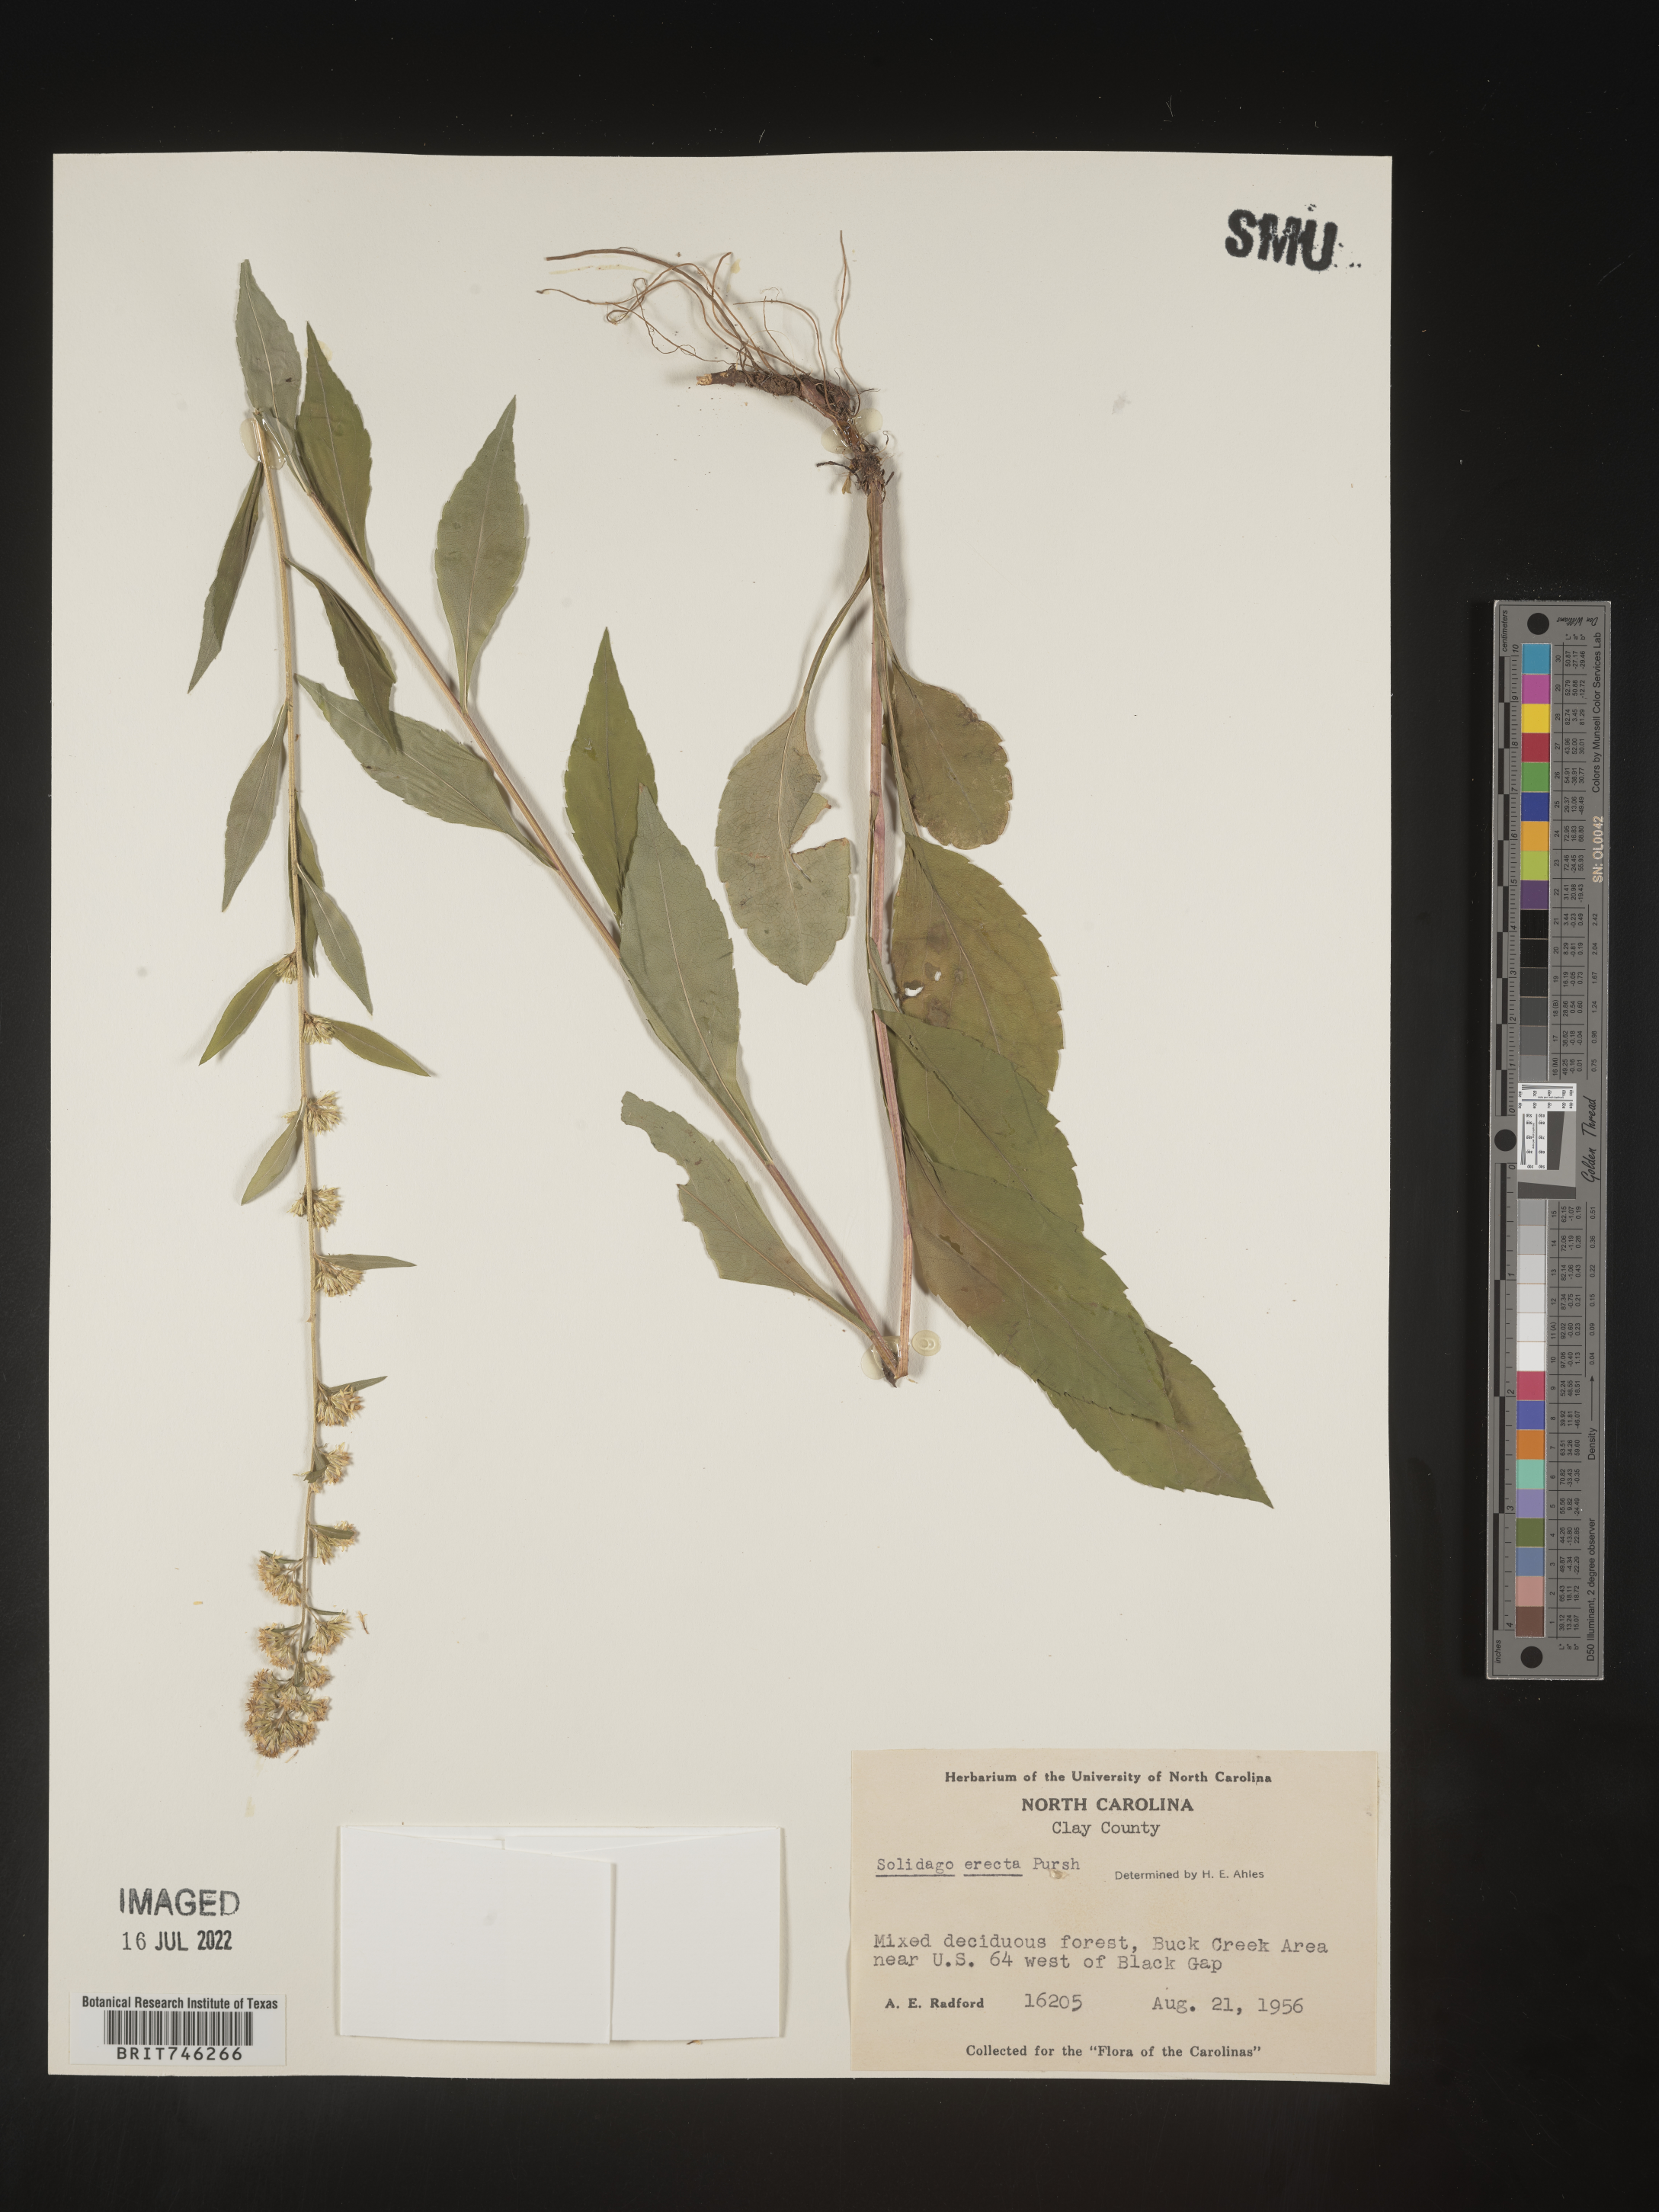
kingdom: Plantae
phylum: Tracheophyta
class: Magnoliopsida
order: Asterales
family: Asteraceae
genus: Solidago
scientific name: Solidago erecta
